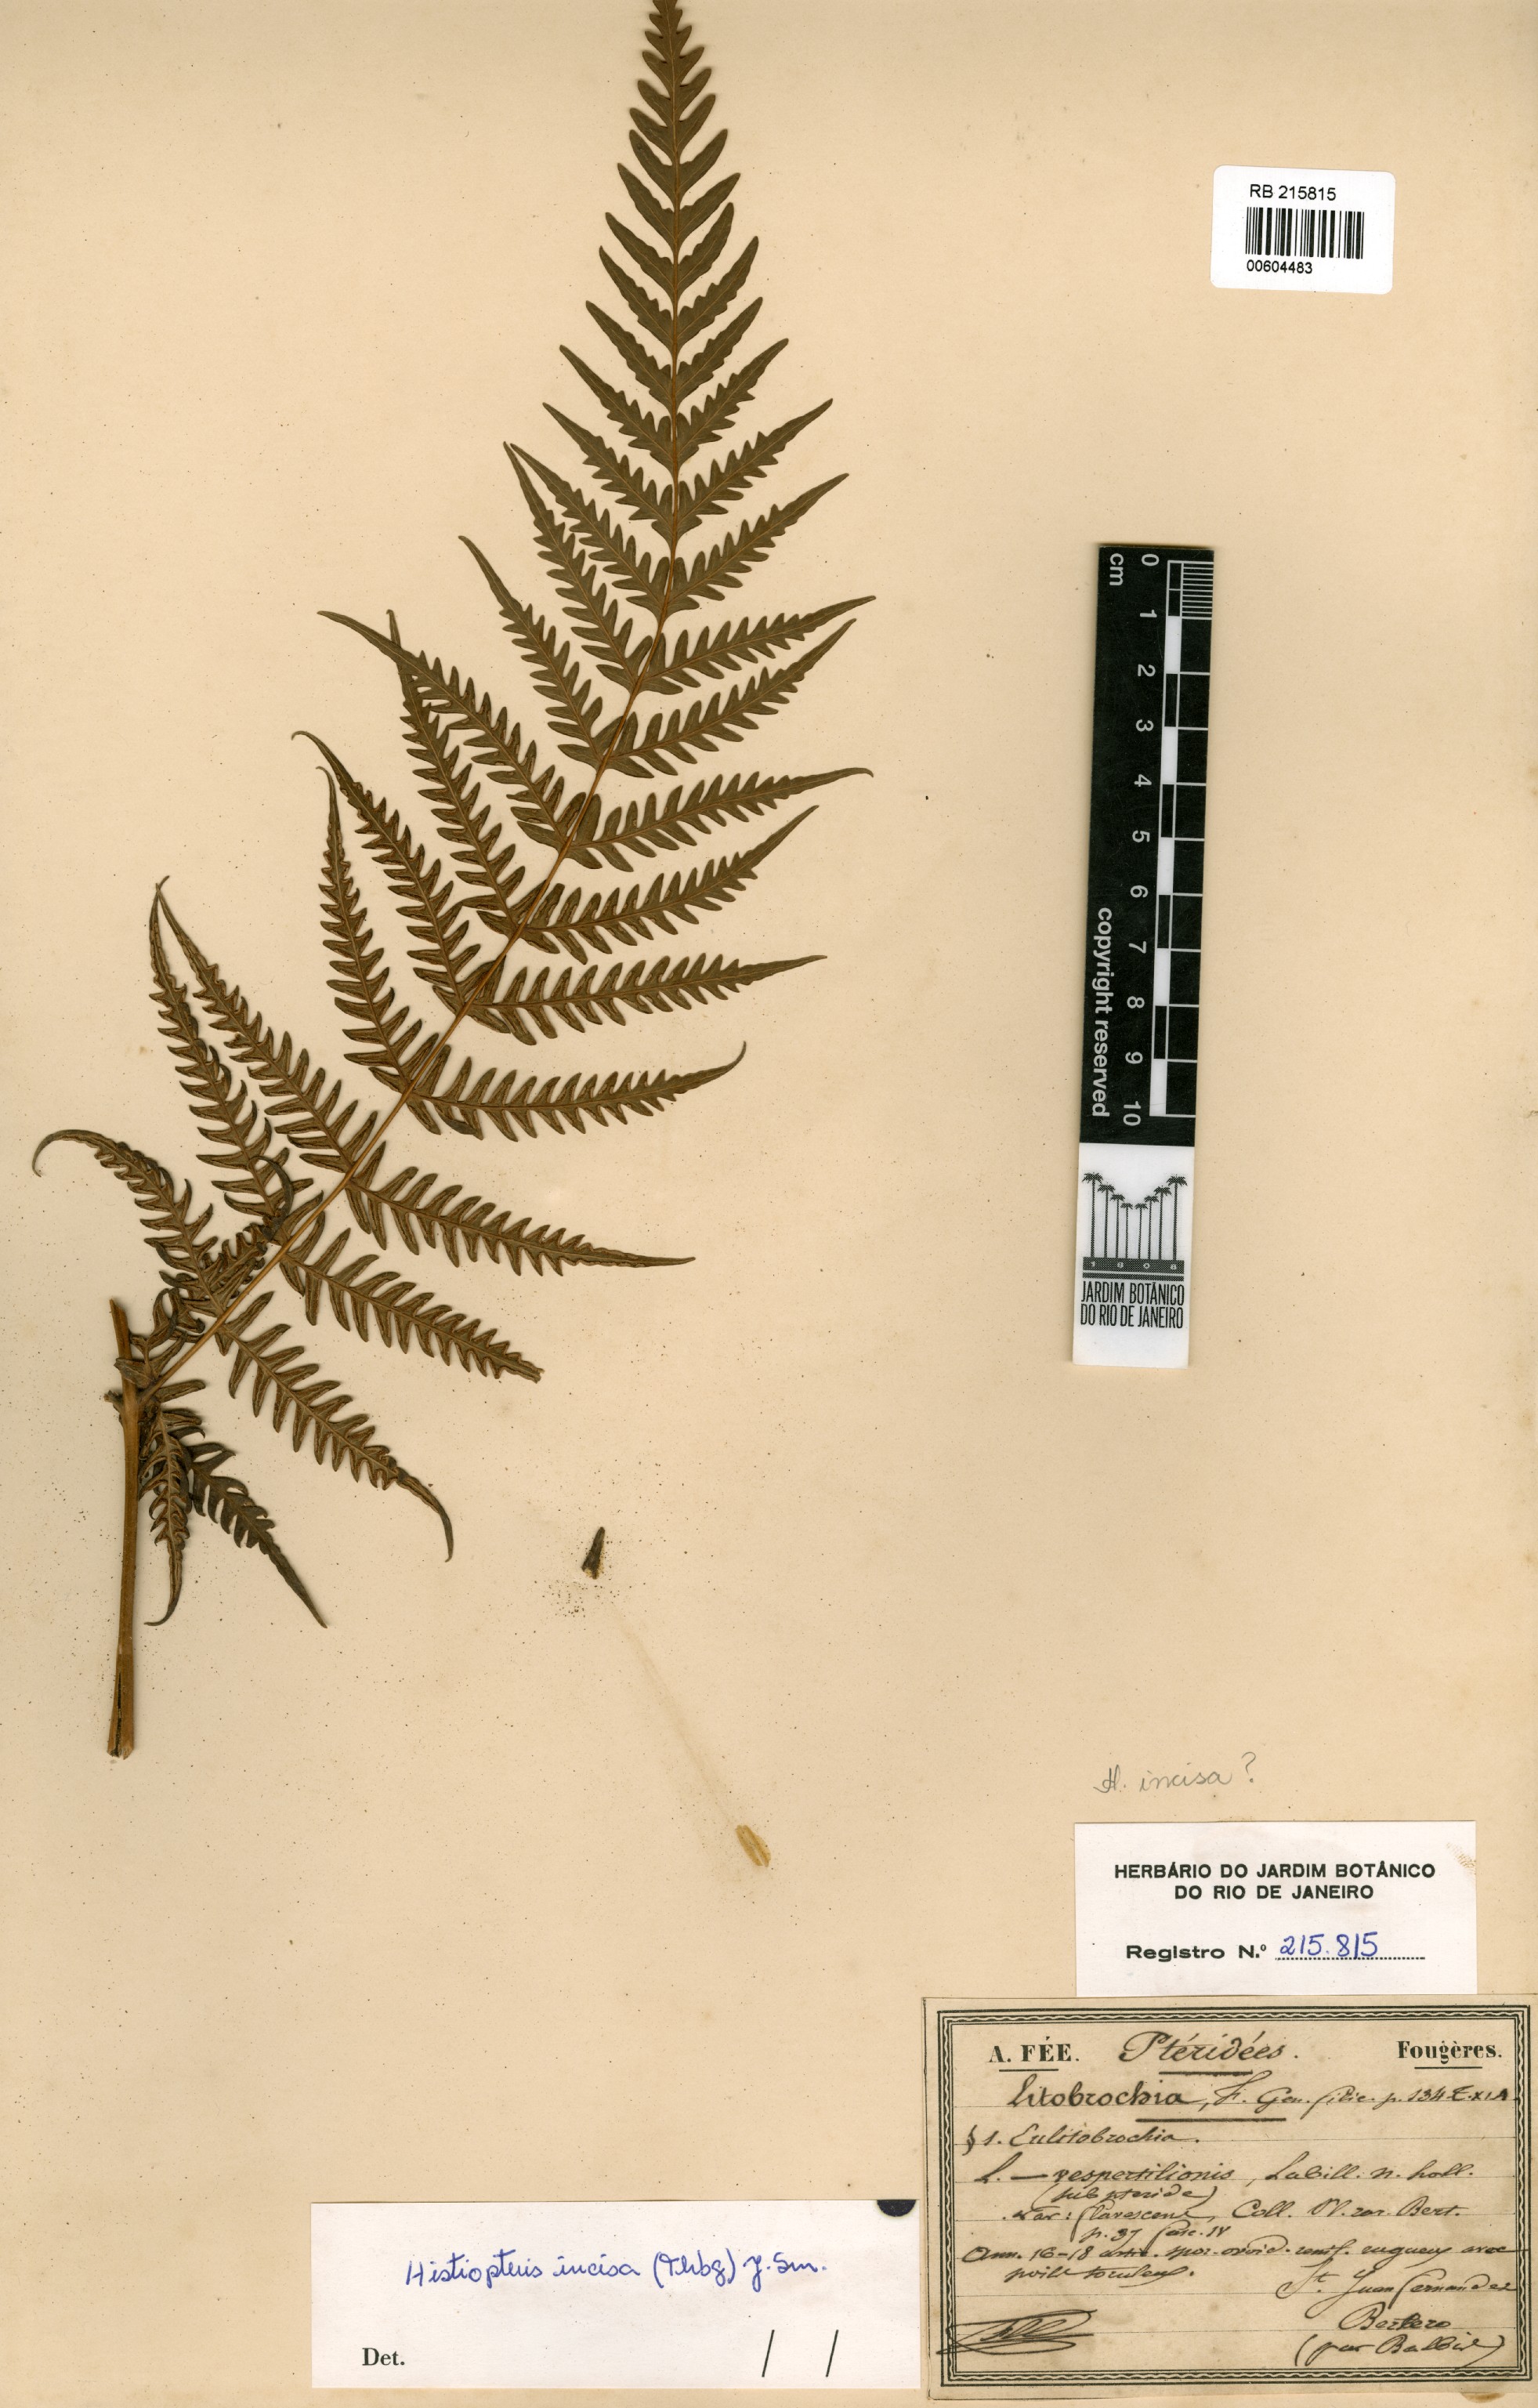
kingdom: Plantae
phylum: Tracheophyta
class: Polypodiopsida
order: Polypodiales
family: Dennstaedtiaceae
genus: Histiopteris
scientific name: Histiopteris incisa
